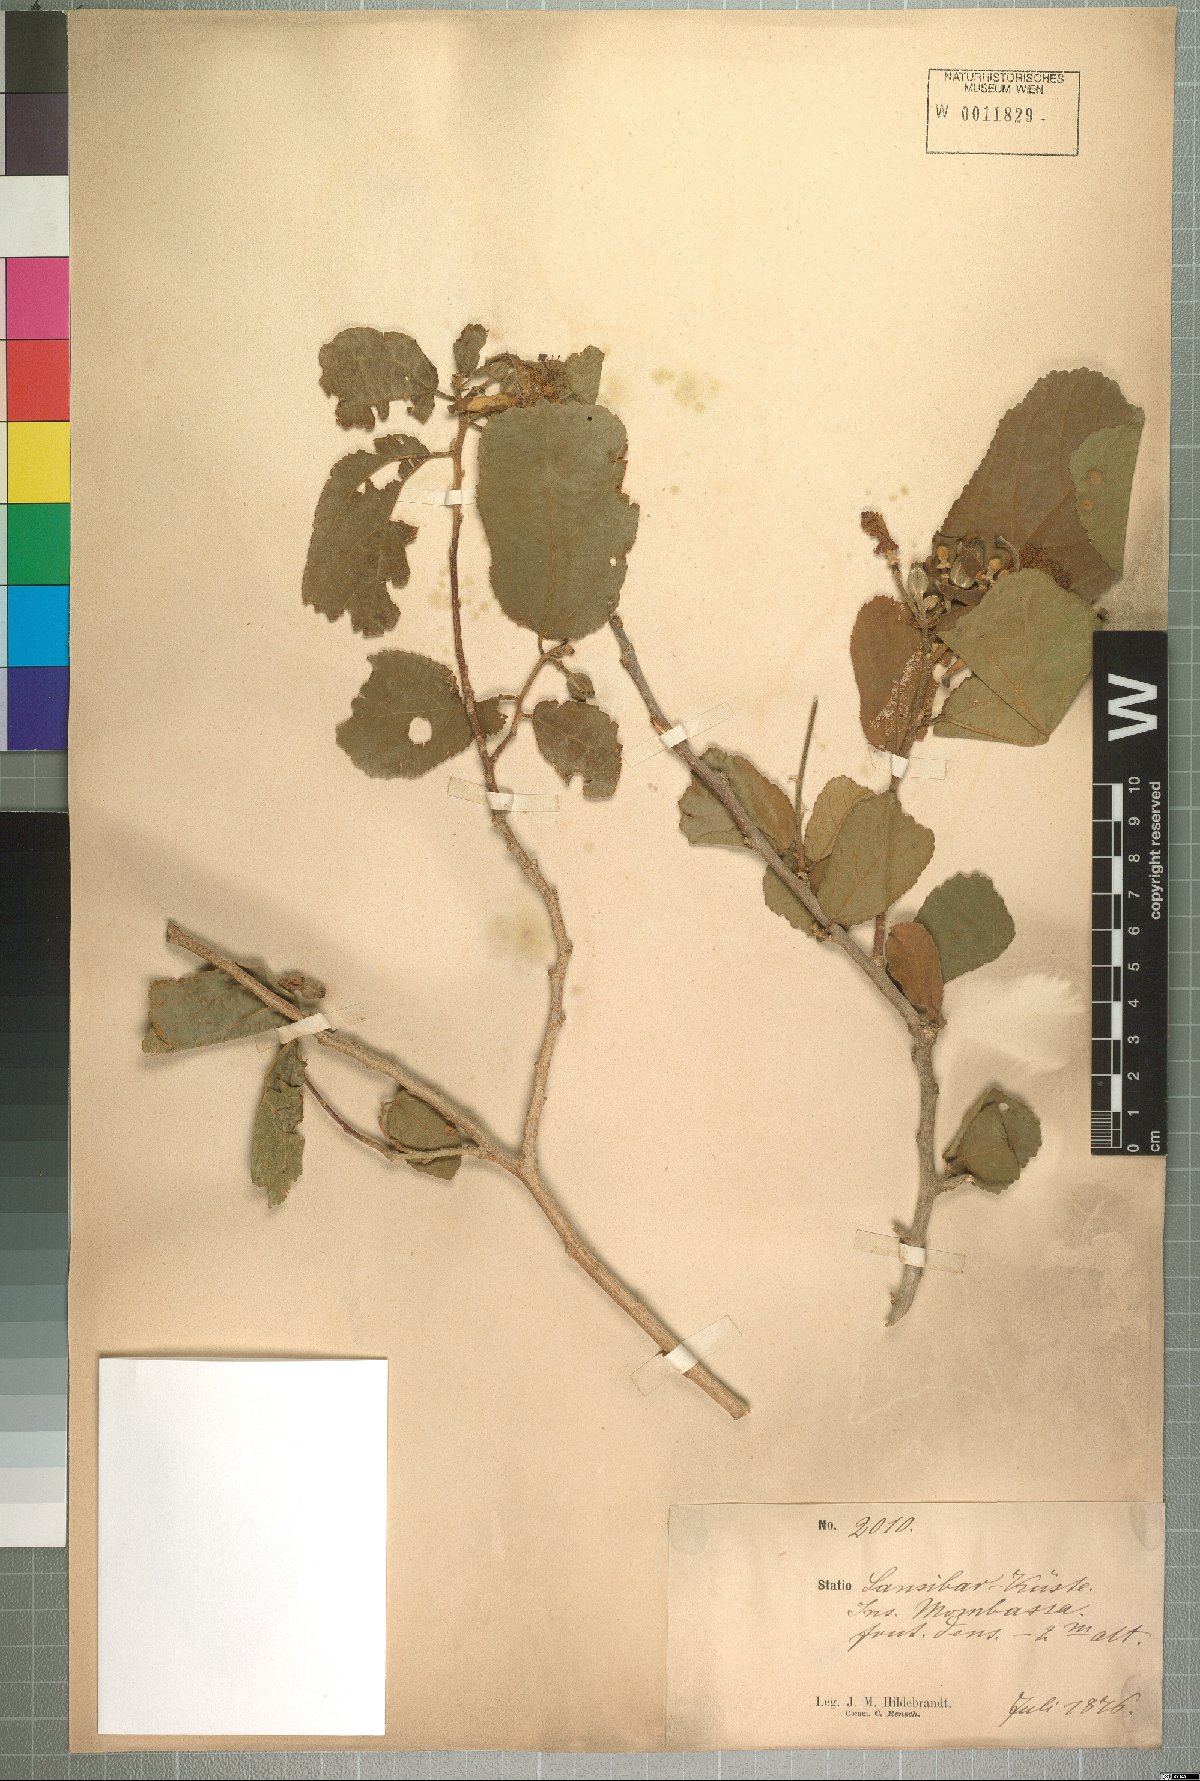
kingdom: Plantae
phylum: Tracheophyta
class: Magnoliopsida
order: Malvales
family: Malvaceae
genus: Grewia
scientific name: Grewia truncata
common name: Mdomoko
